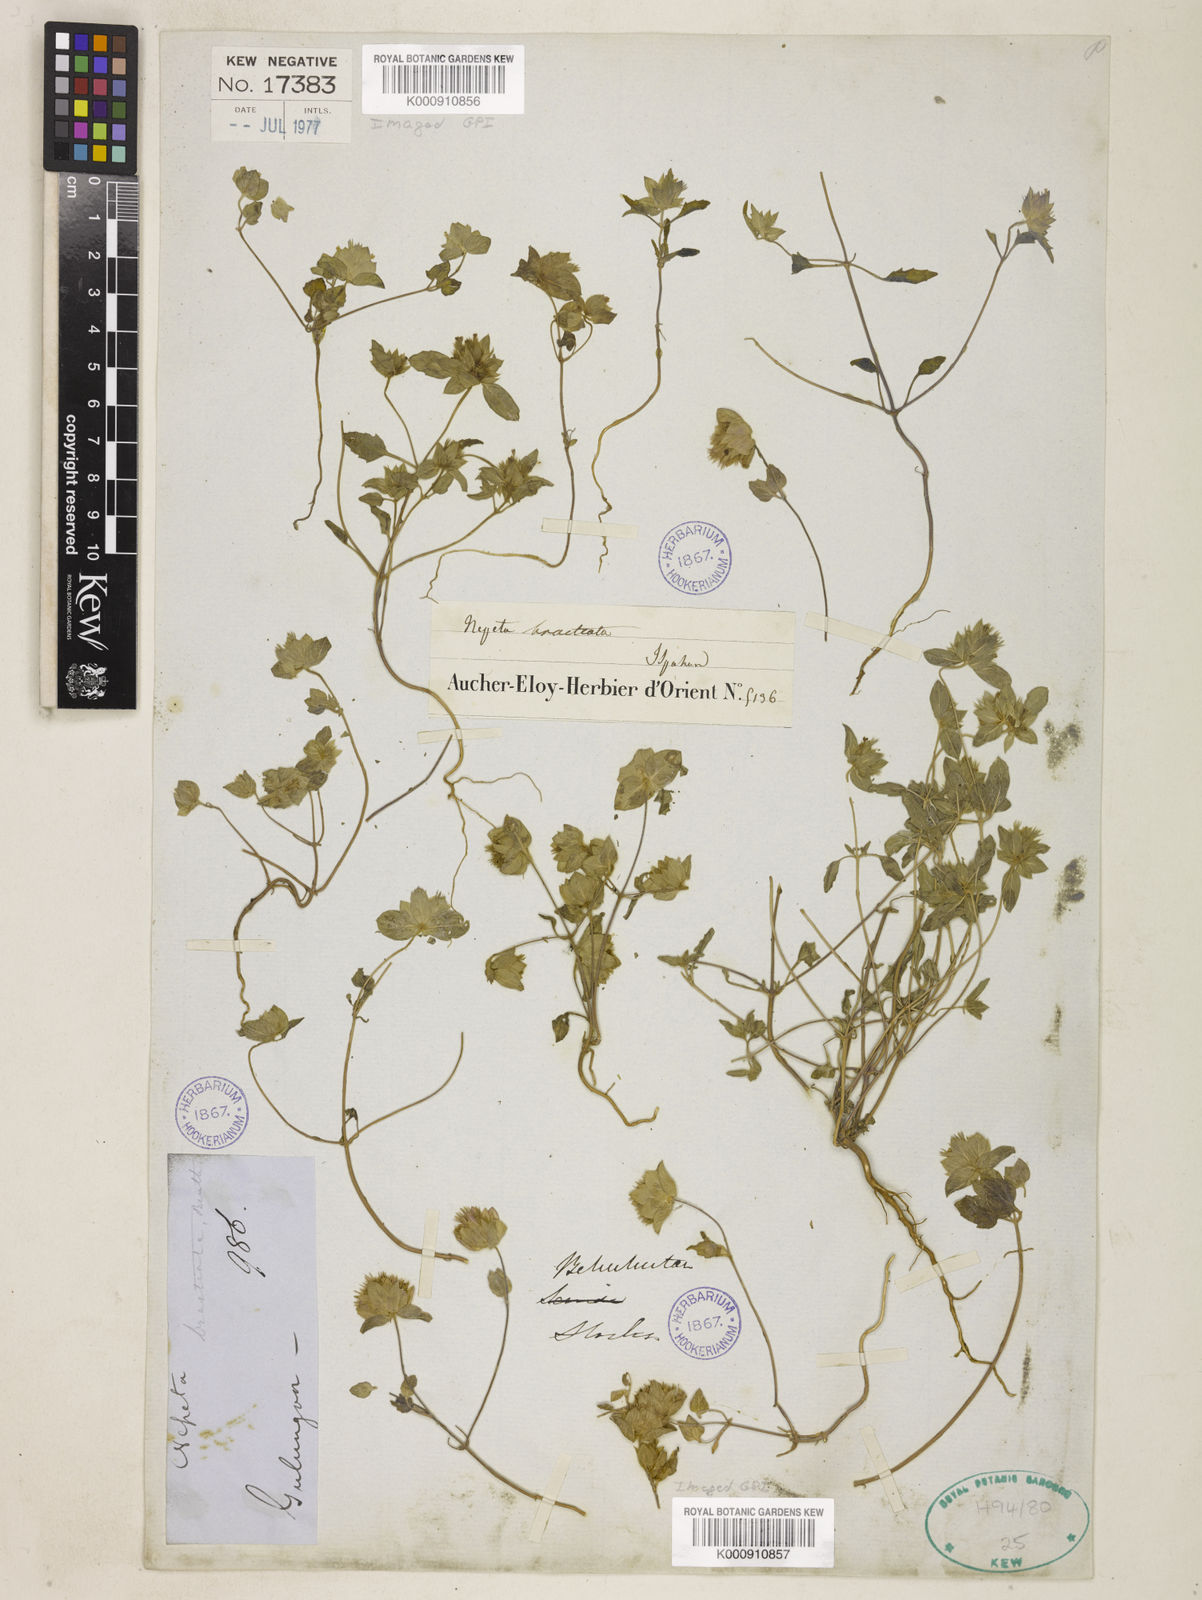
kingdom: Plantae
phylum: Tracheophyta
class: Magnoliopsida
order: Lamiales
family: Lamiaceae
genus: Nepeta
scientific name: Nepeta bracteata
